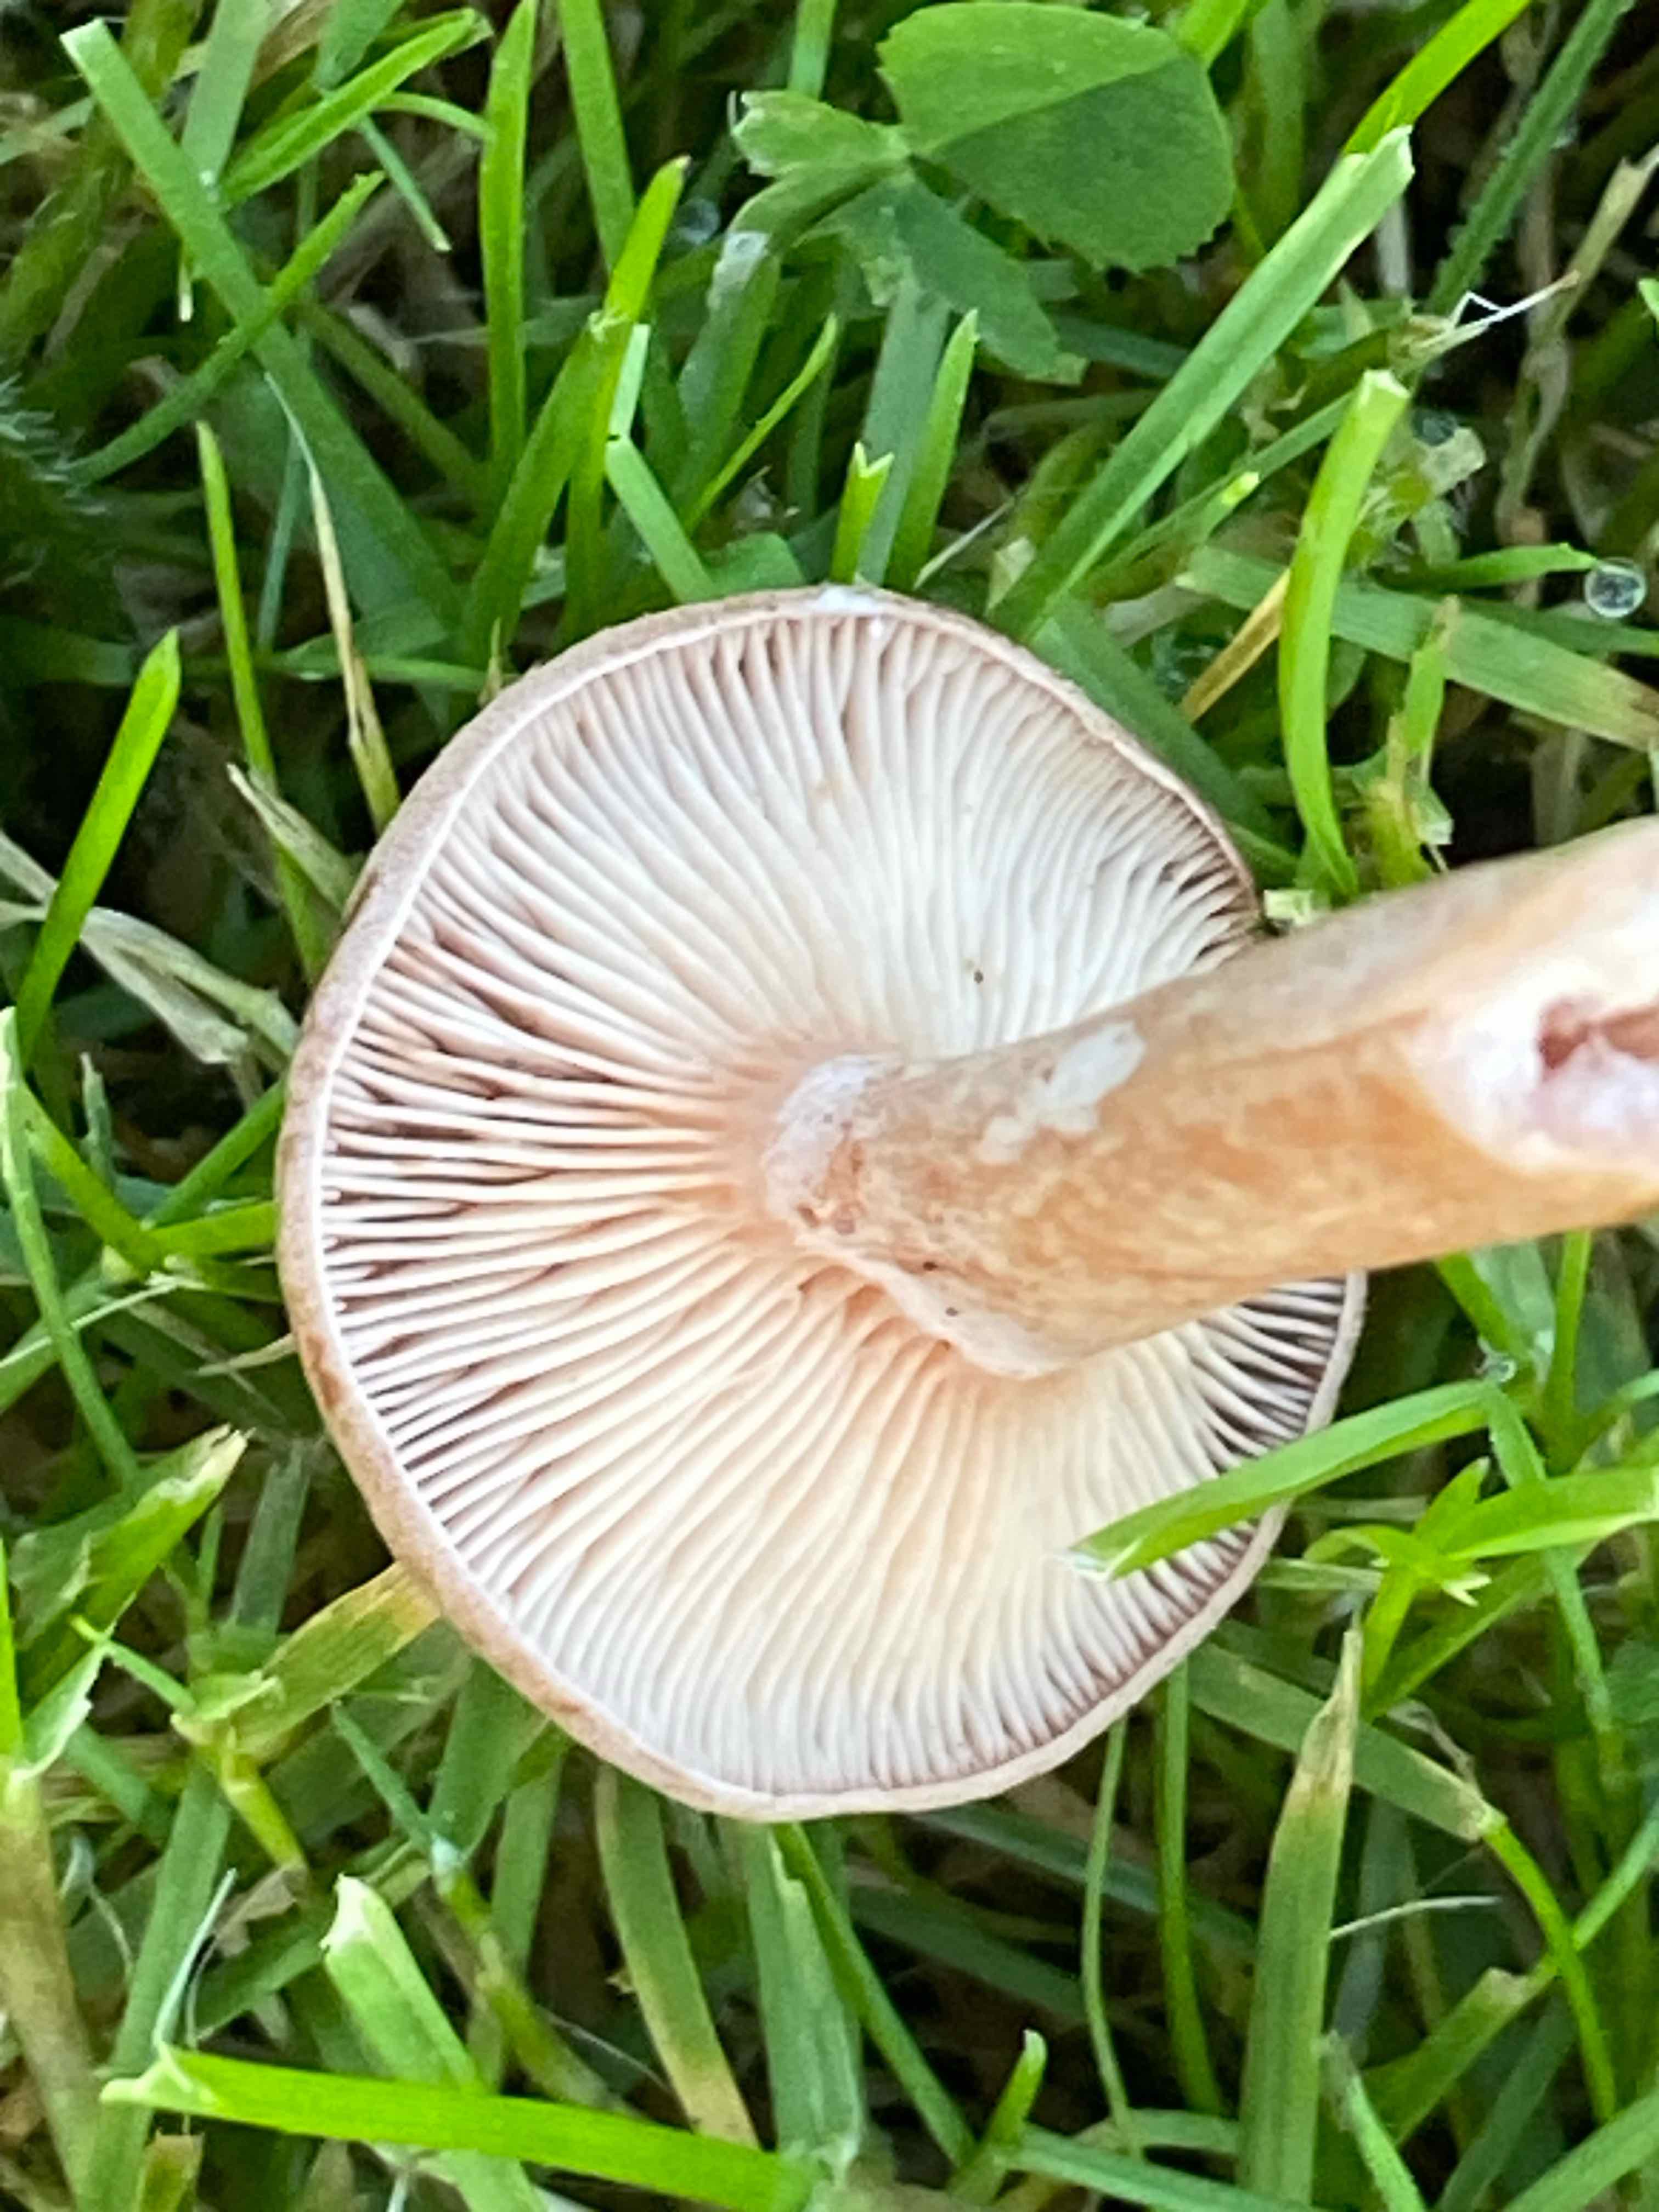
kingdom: Fungi
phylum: Basidiomycota
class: Agaricomycetes
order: Russulales
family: Russulaceae
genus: Lactarius
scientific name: Lactarius glyciosmus
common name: kokos-mælkehat
